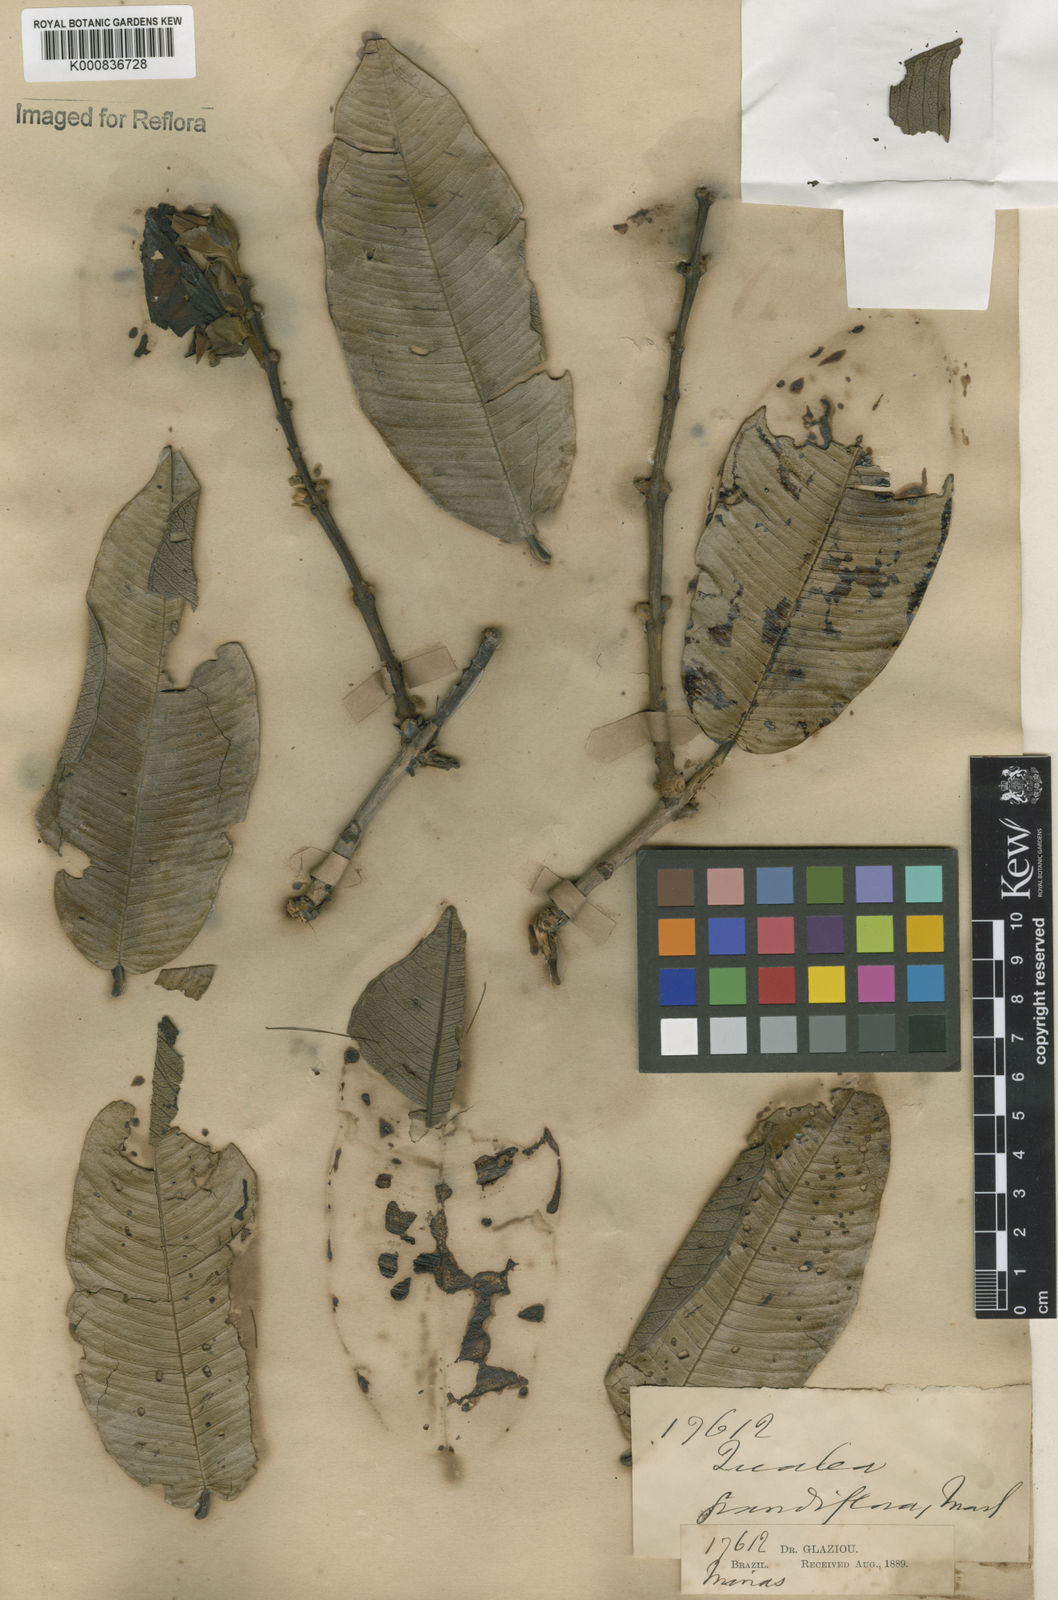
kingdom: Plantae
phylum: Tracheophyta
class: Magnoliopsida
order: Myrtales
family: Vochysiaceae
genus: Qualea
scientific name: Qualea grandiflora
